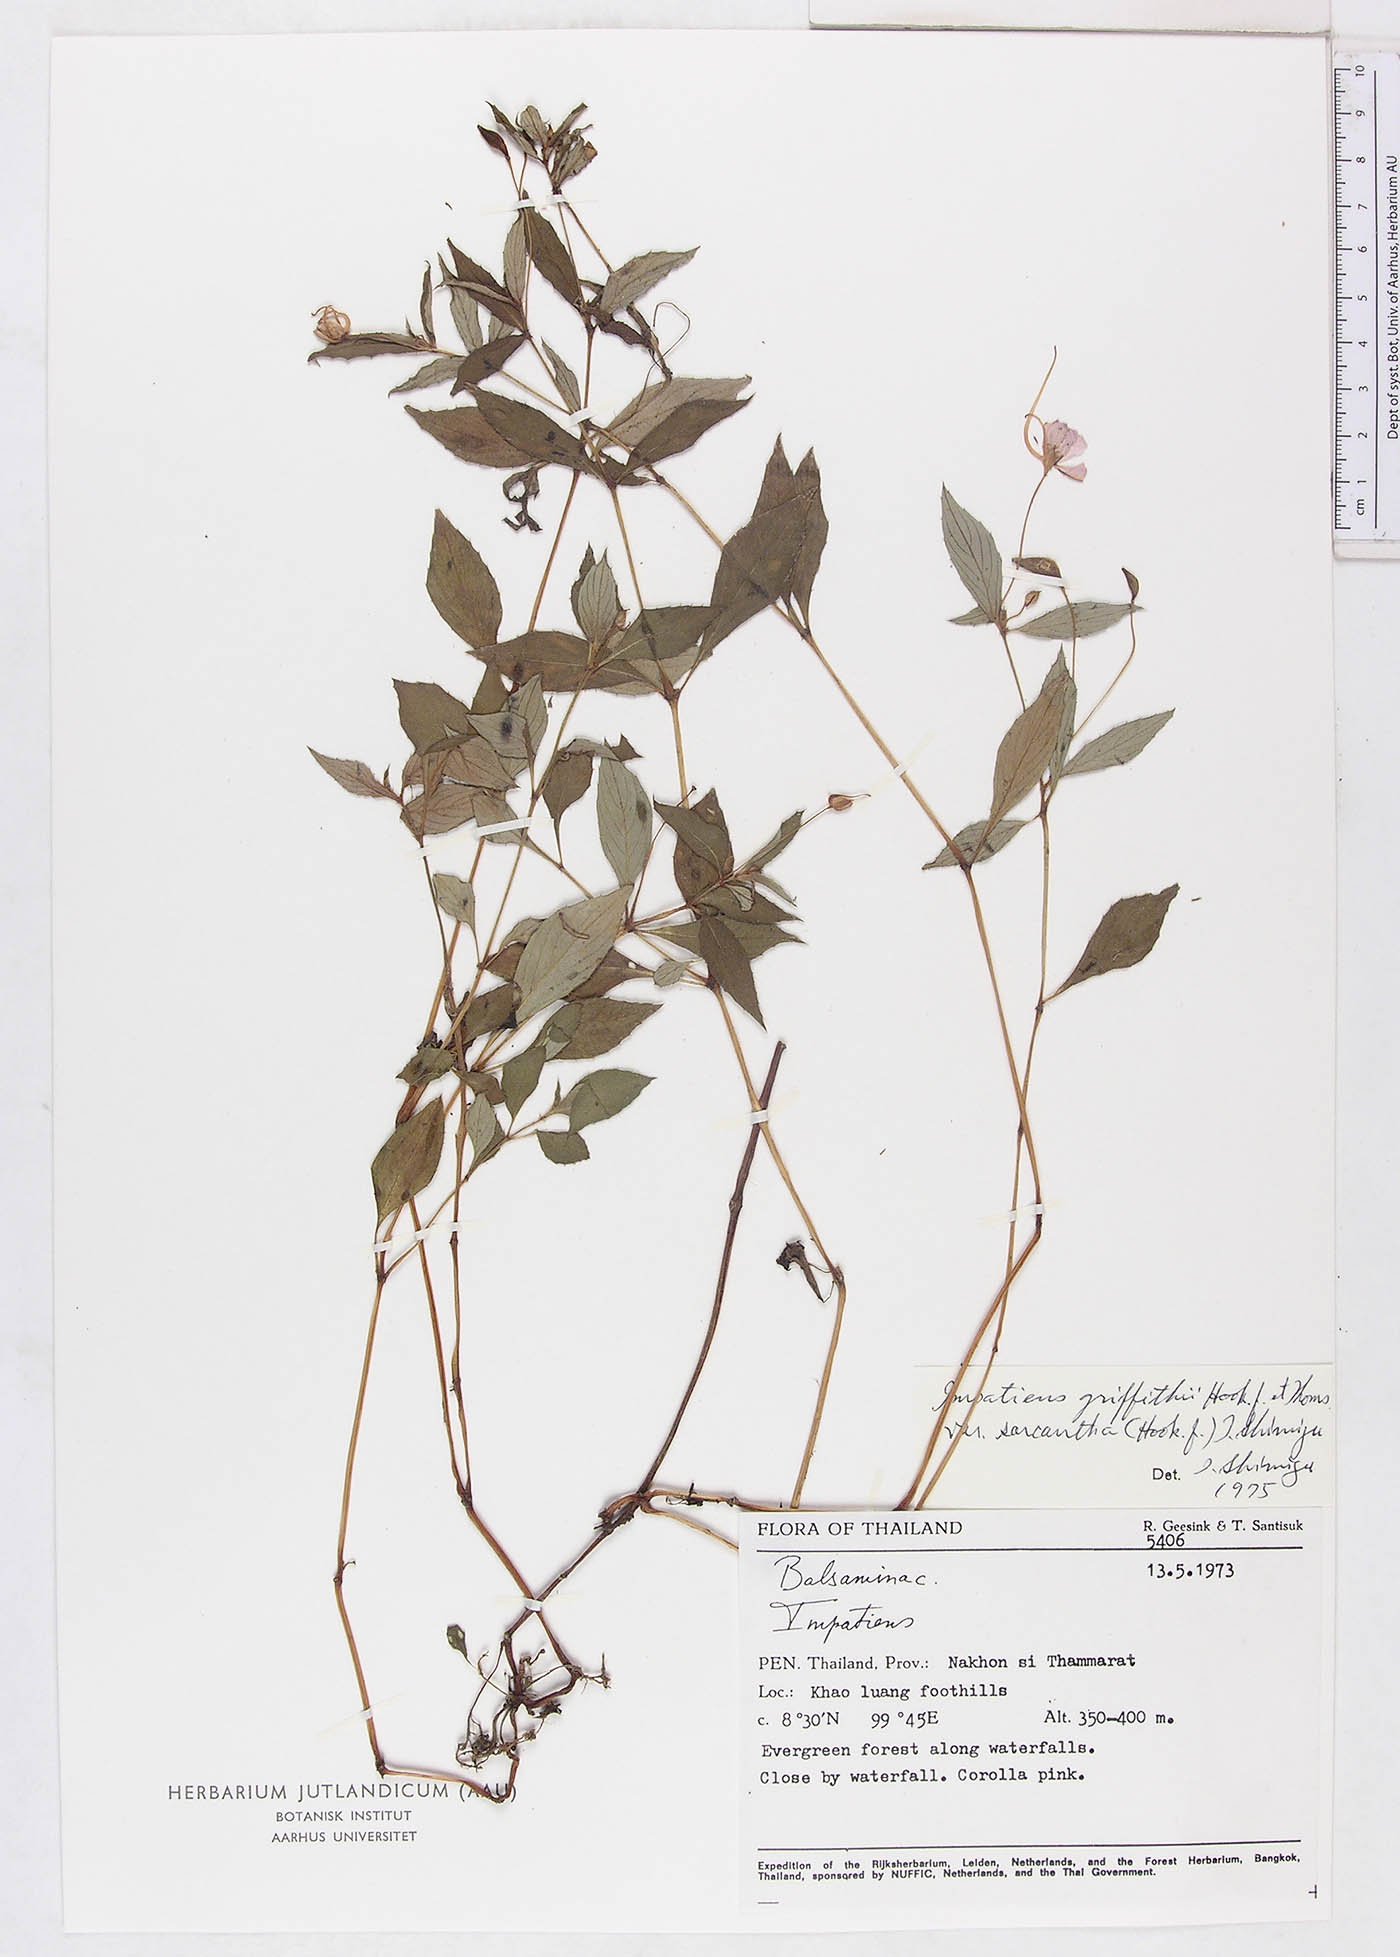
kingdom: Plantae
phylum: Tracheophyta
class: Magnoliopsida
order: Ericales
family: Balsaminaceae
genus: Impatiens
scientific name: Impatiens griffithii
